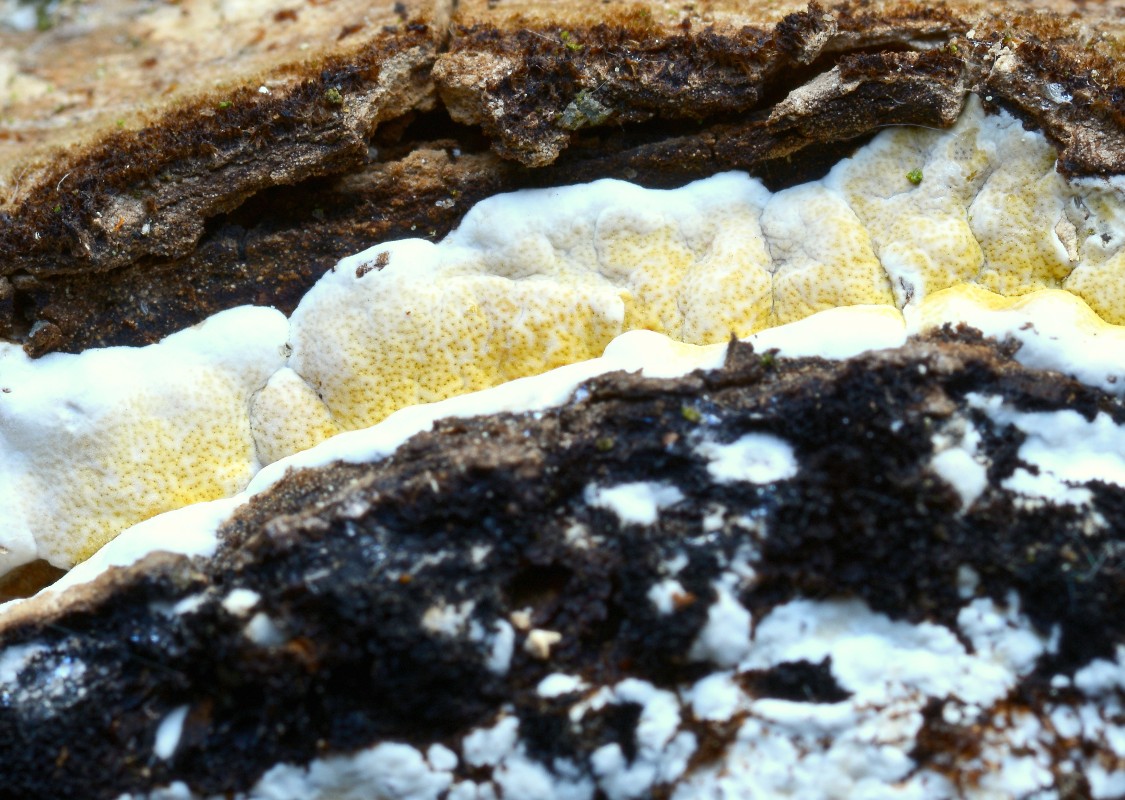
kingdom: Fungi
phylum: Ascomycota
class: Sordariomycetes
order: Hypocreales
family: Hypocreaceae
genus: Trichoderma
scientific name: Trichoderma pulvinatum
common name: snyltende kødkerne
